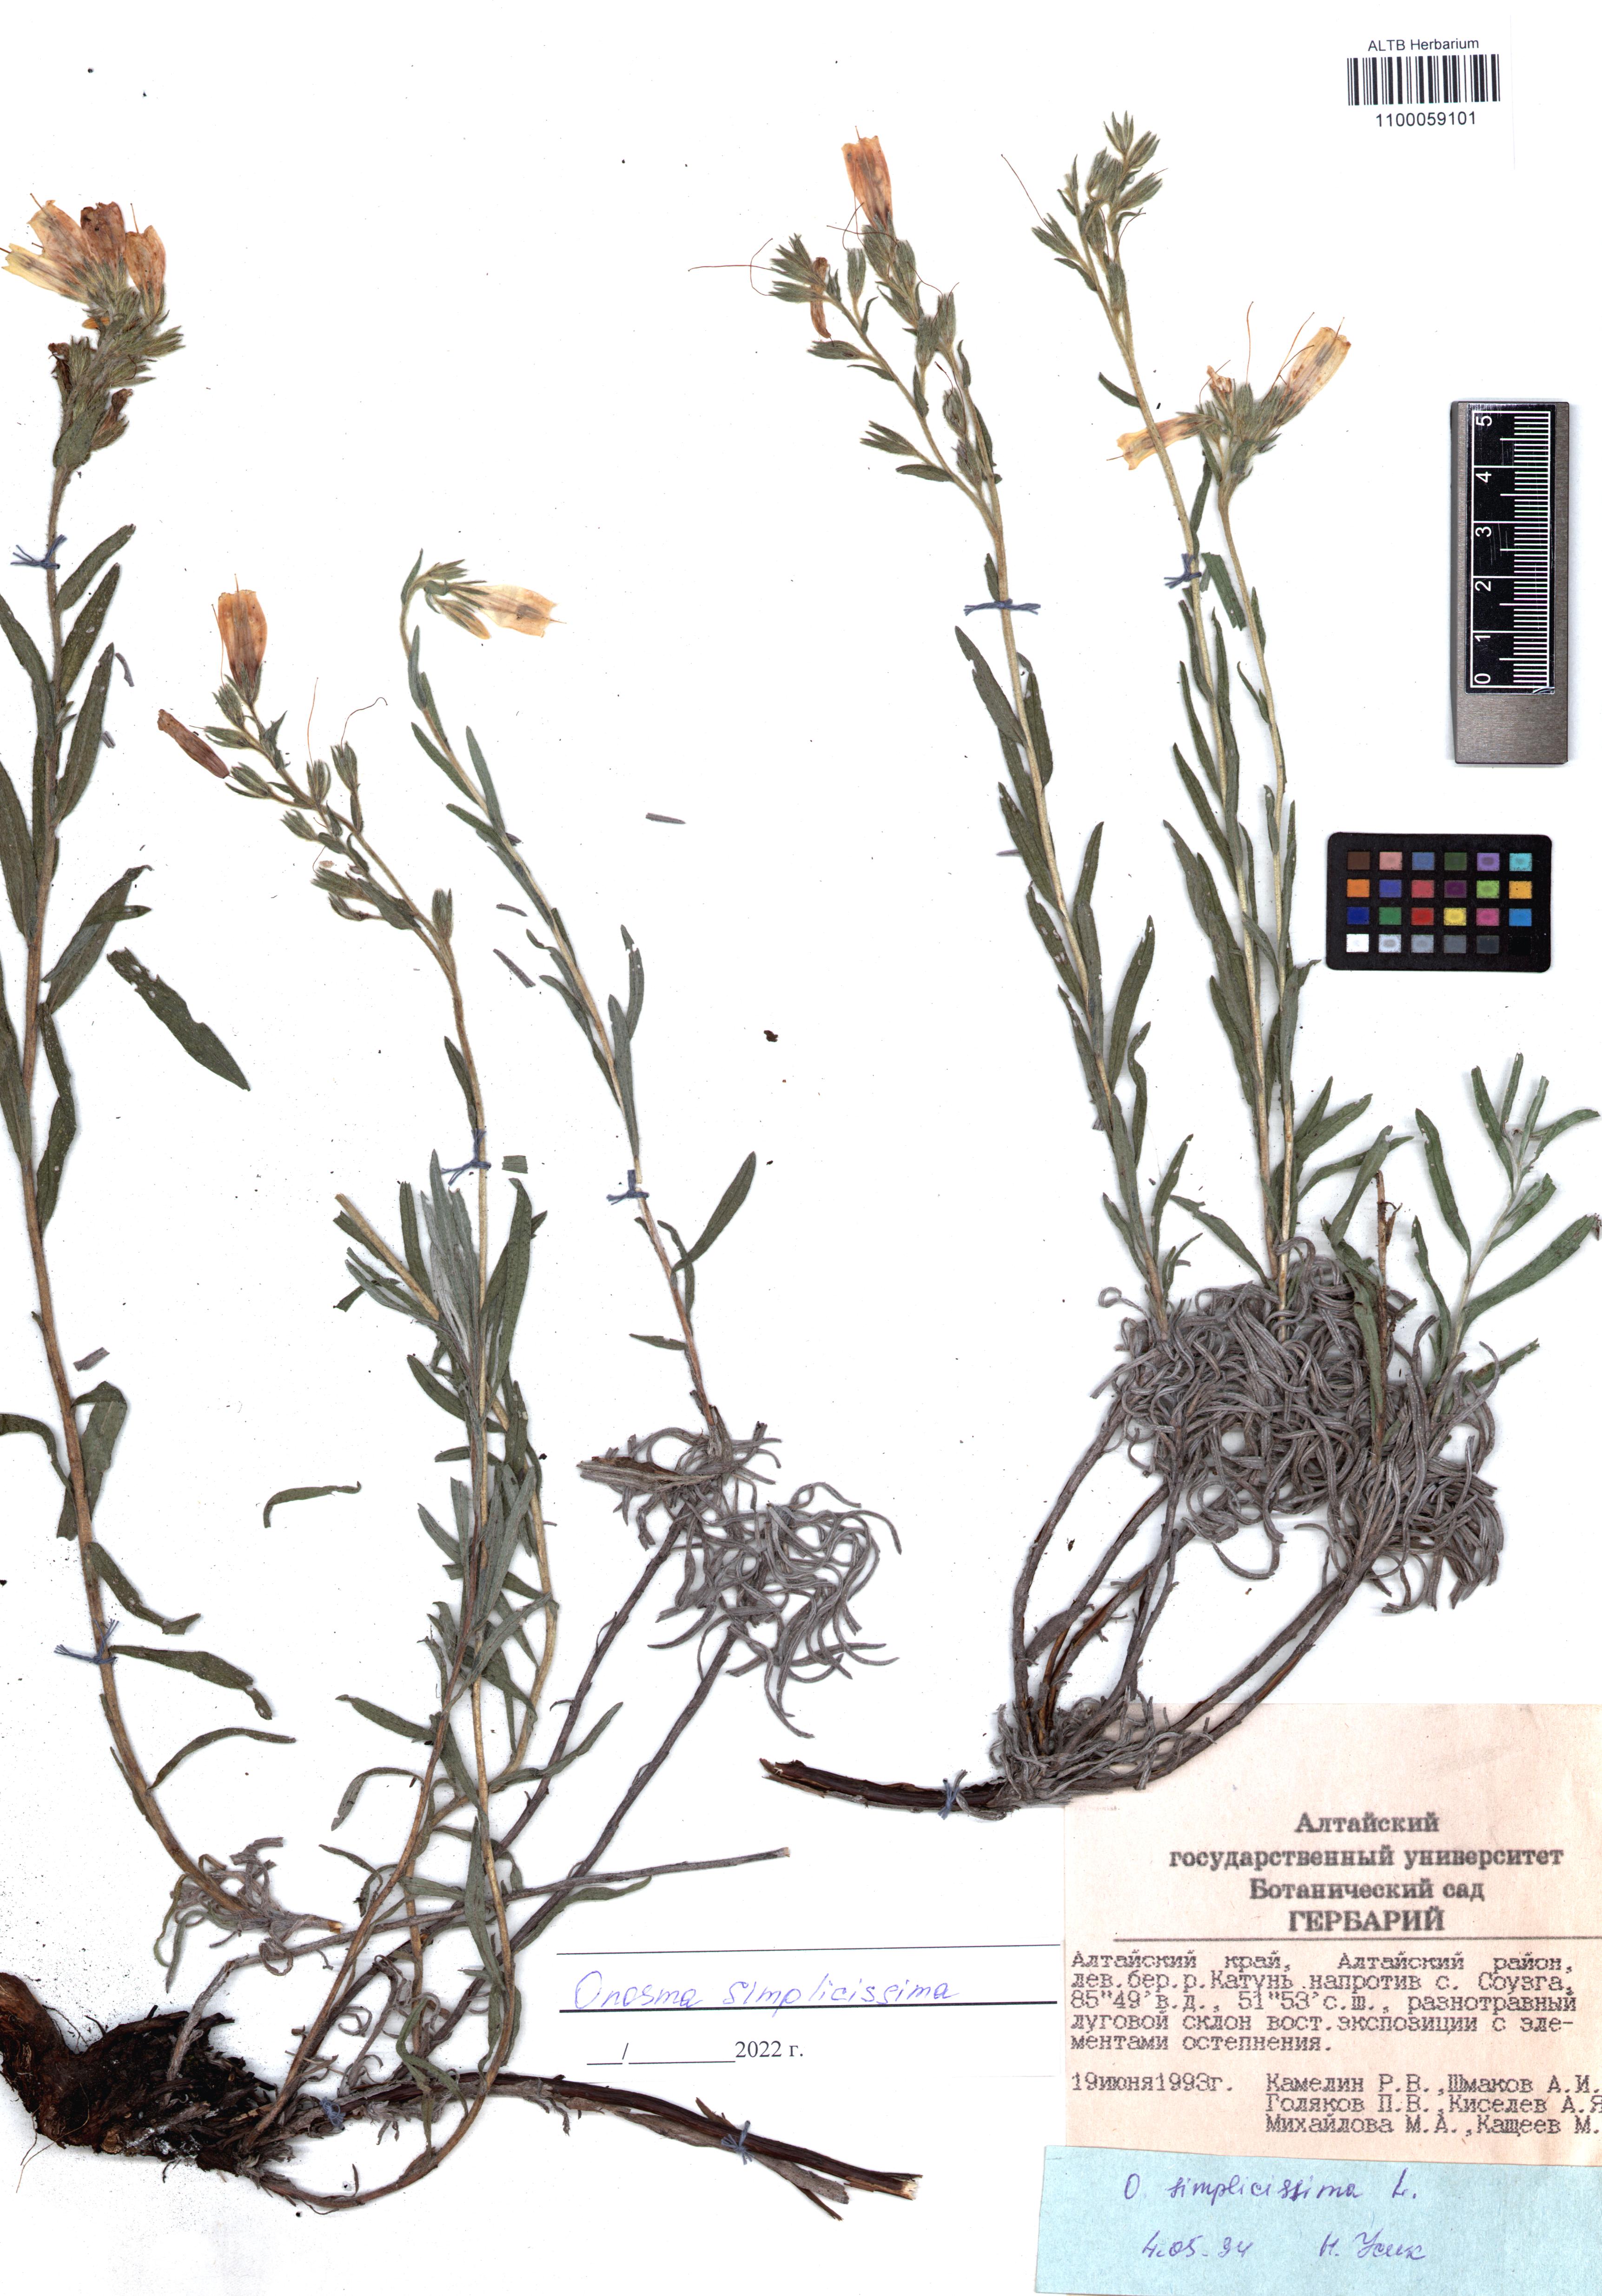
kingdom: Plantae
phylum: Tracheophyta
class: Magnoliopsida
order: Boraginales
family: Boraginaceae
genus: Onosma
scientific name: Onosma simplicissima
